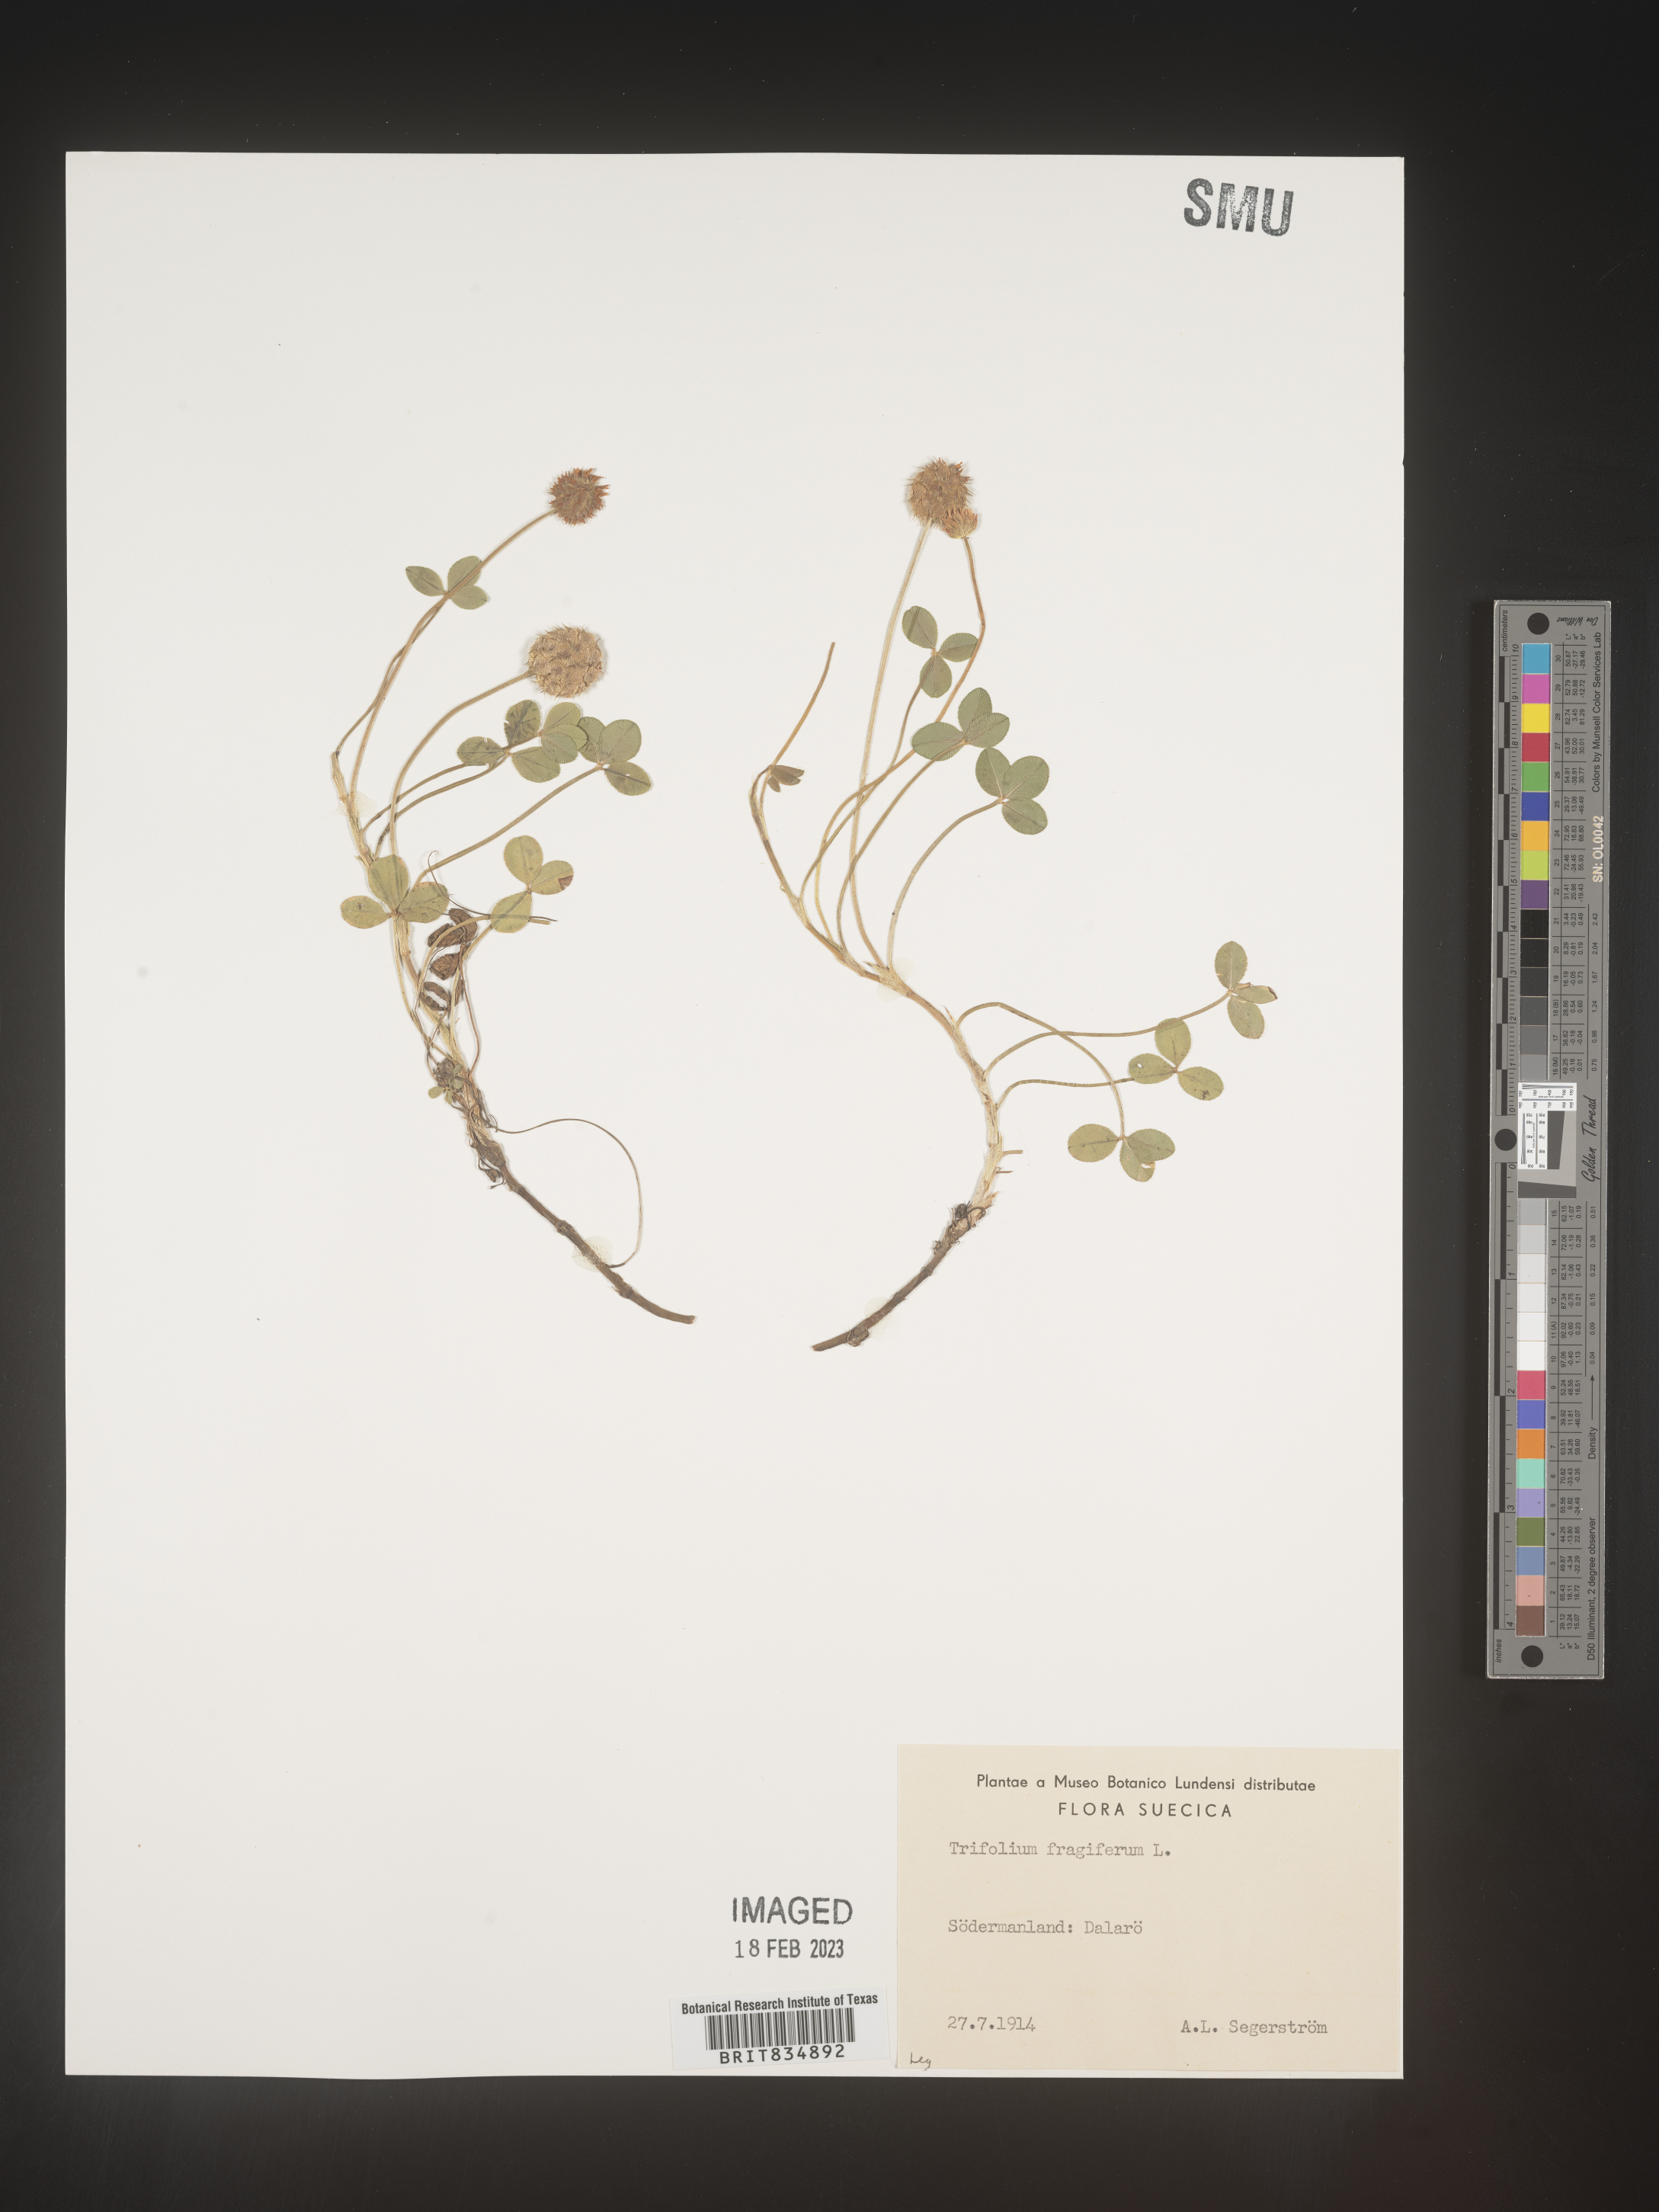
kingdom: Plantae
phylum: Tracheophyta
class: Magnoliopsida
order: Fabales
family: Fabaceae
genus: Trifolium
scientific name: Trifolium
